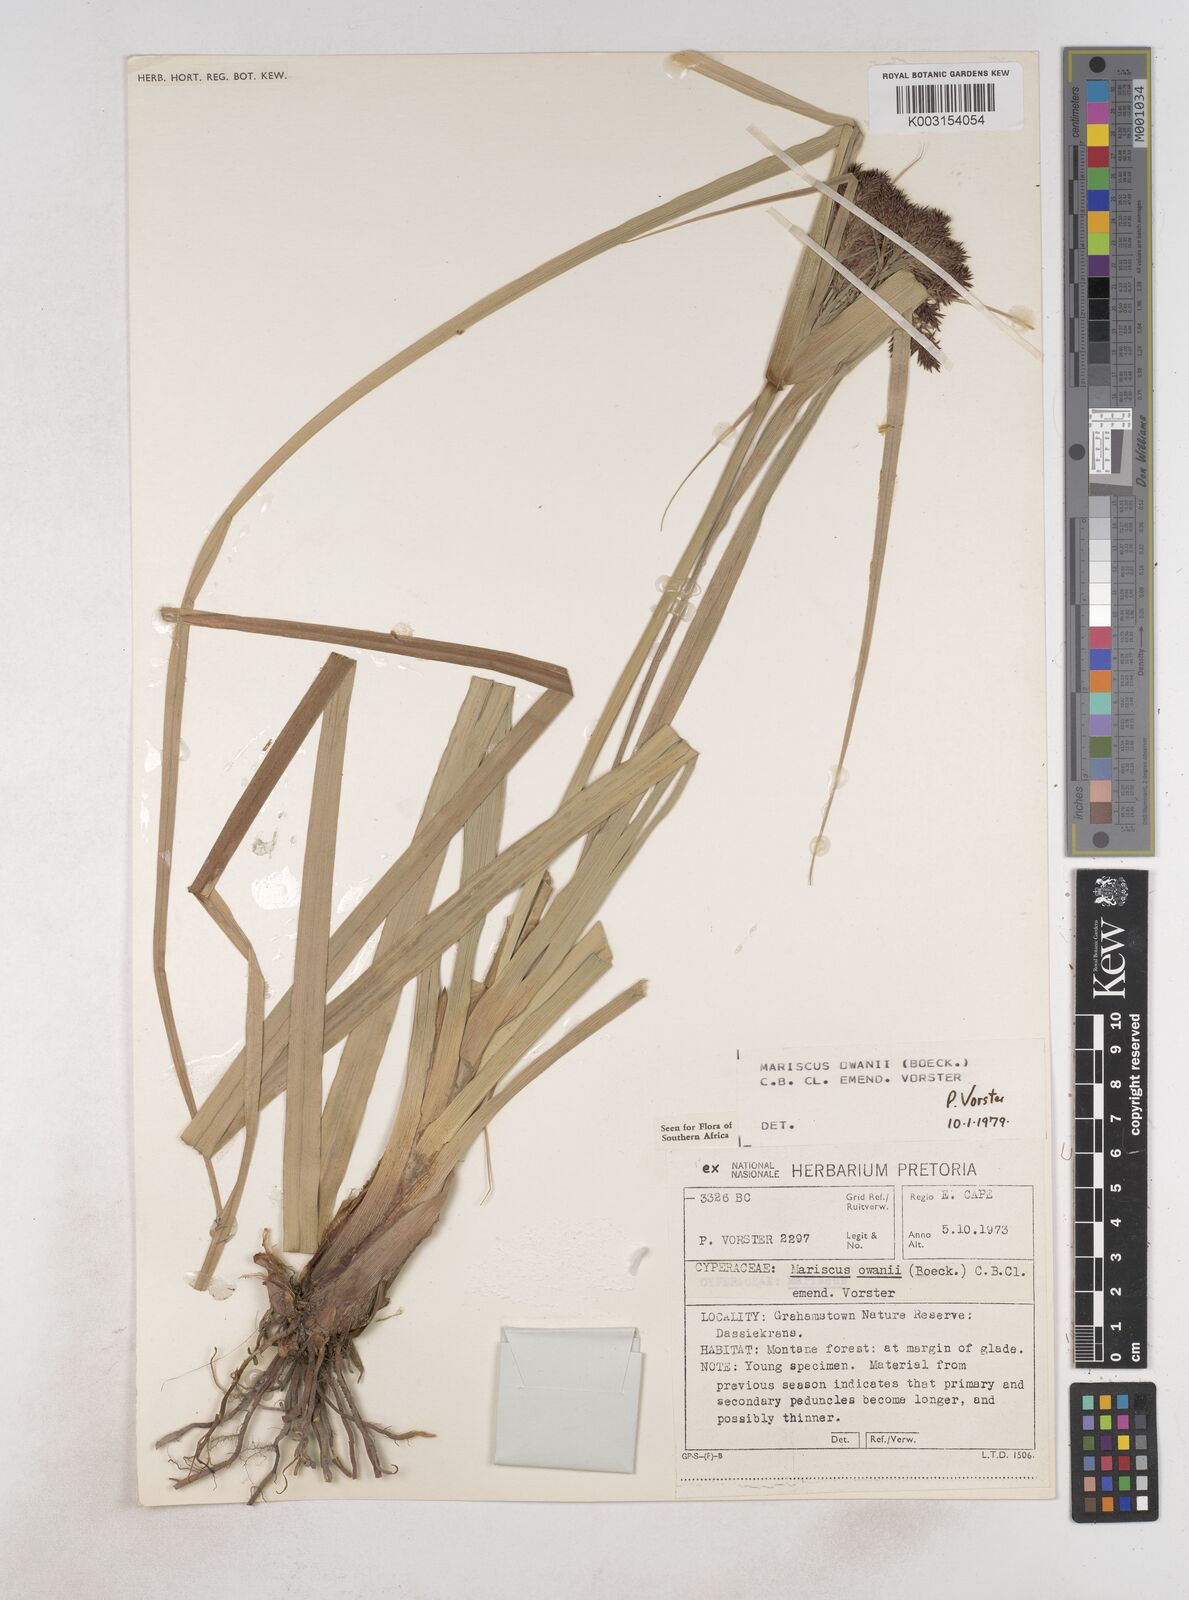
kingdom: Plantae
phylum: Tracheophyta
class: Liliopsida
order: Poales
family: Cyperaceae
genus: Cyperus
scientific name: Cyperus owanii
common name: Owan's flatsedge
